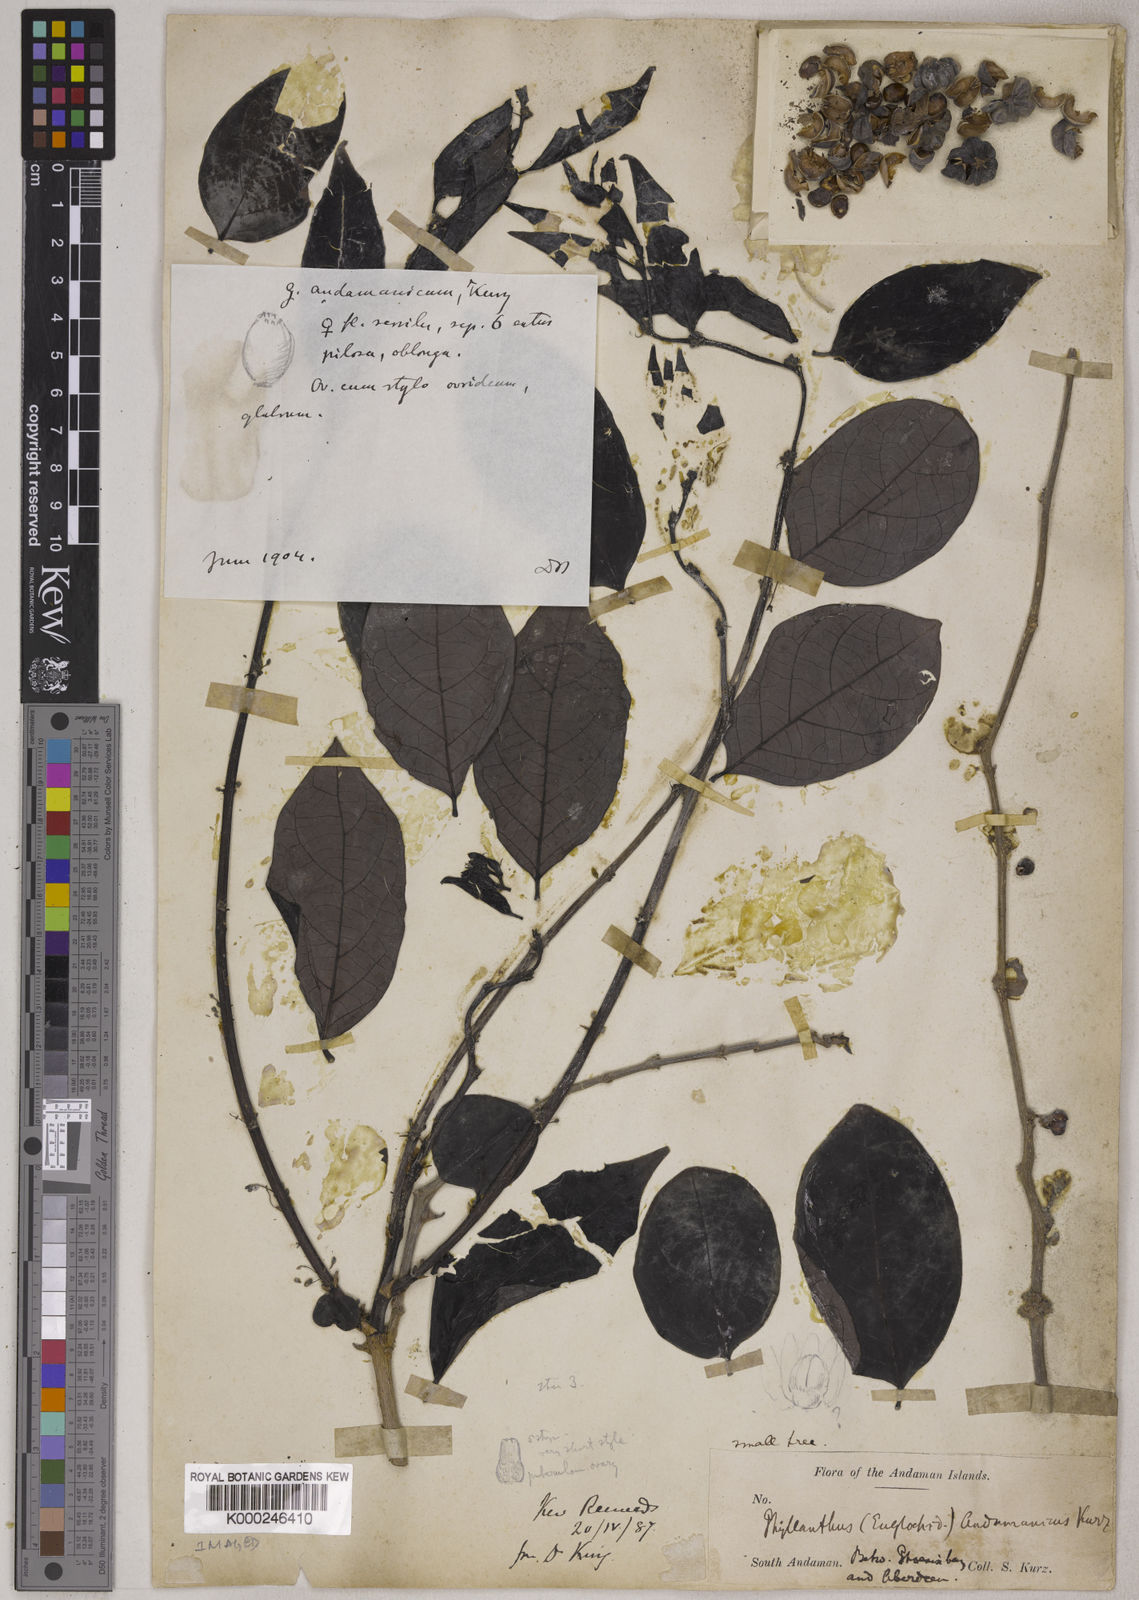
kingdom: Plantae
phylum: Tracheophyta
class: Magnoliopsida
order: Malpighiales
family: Phyllanthaceae
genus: Glochidion
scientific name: Glochidion andamanicum
